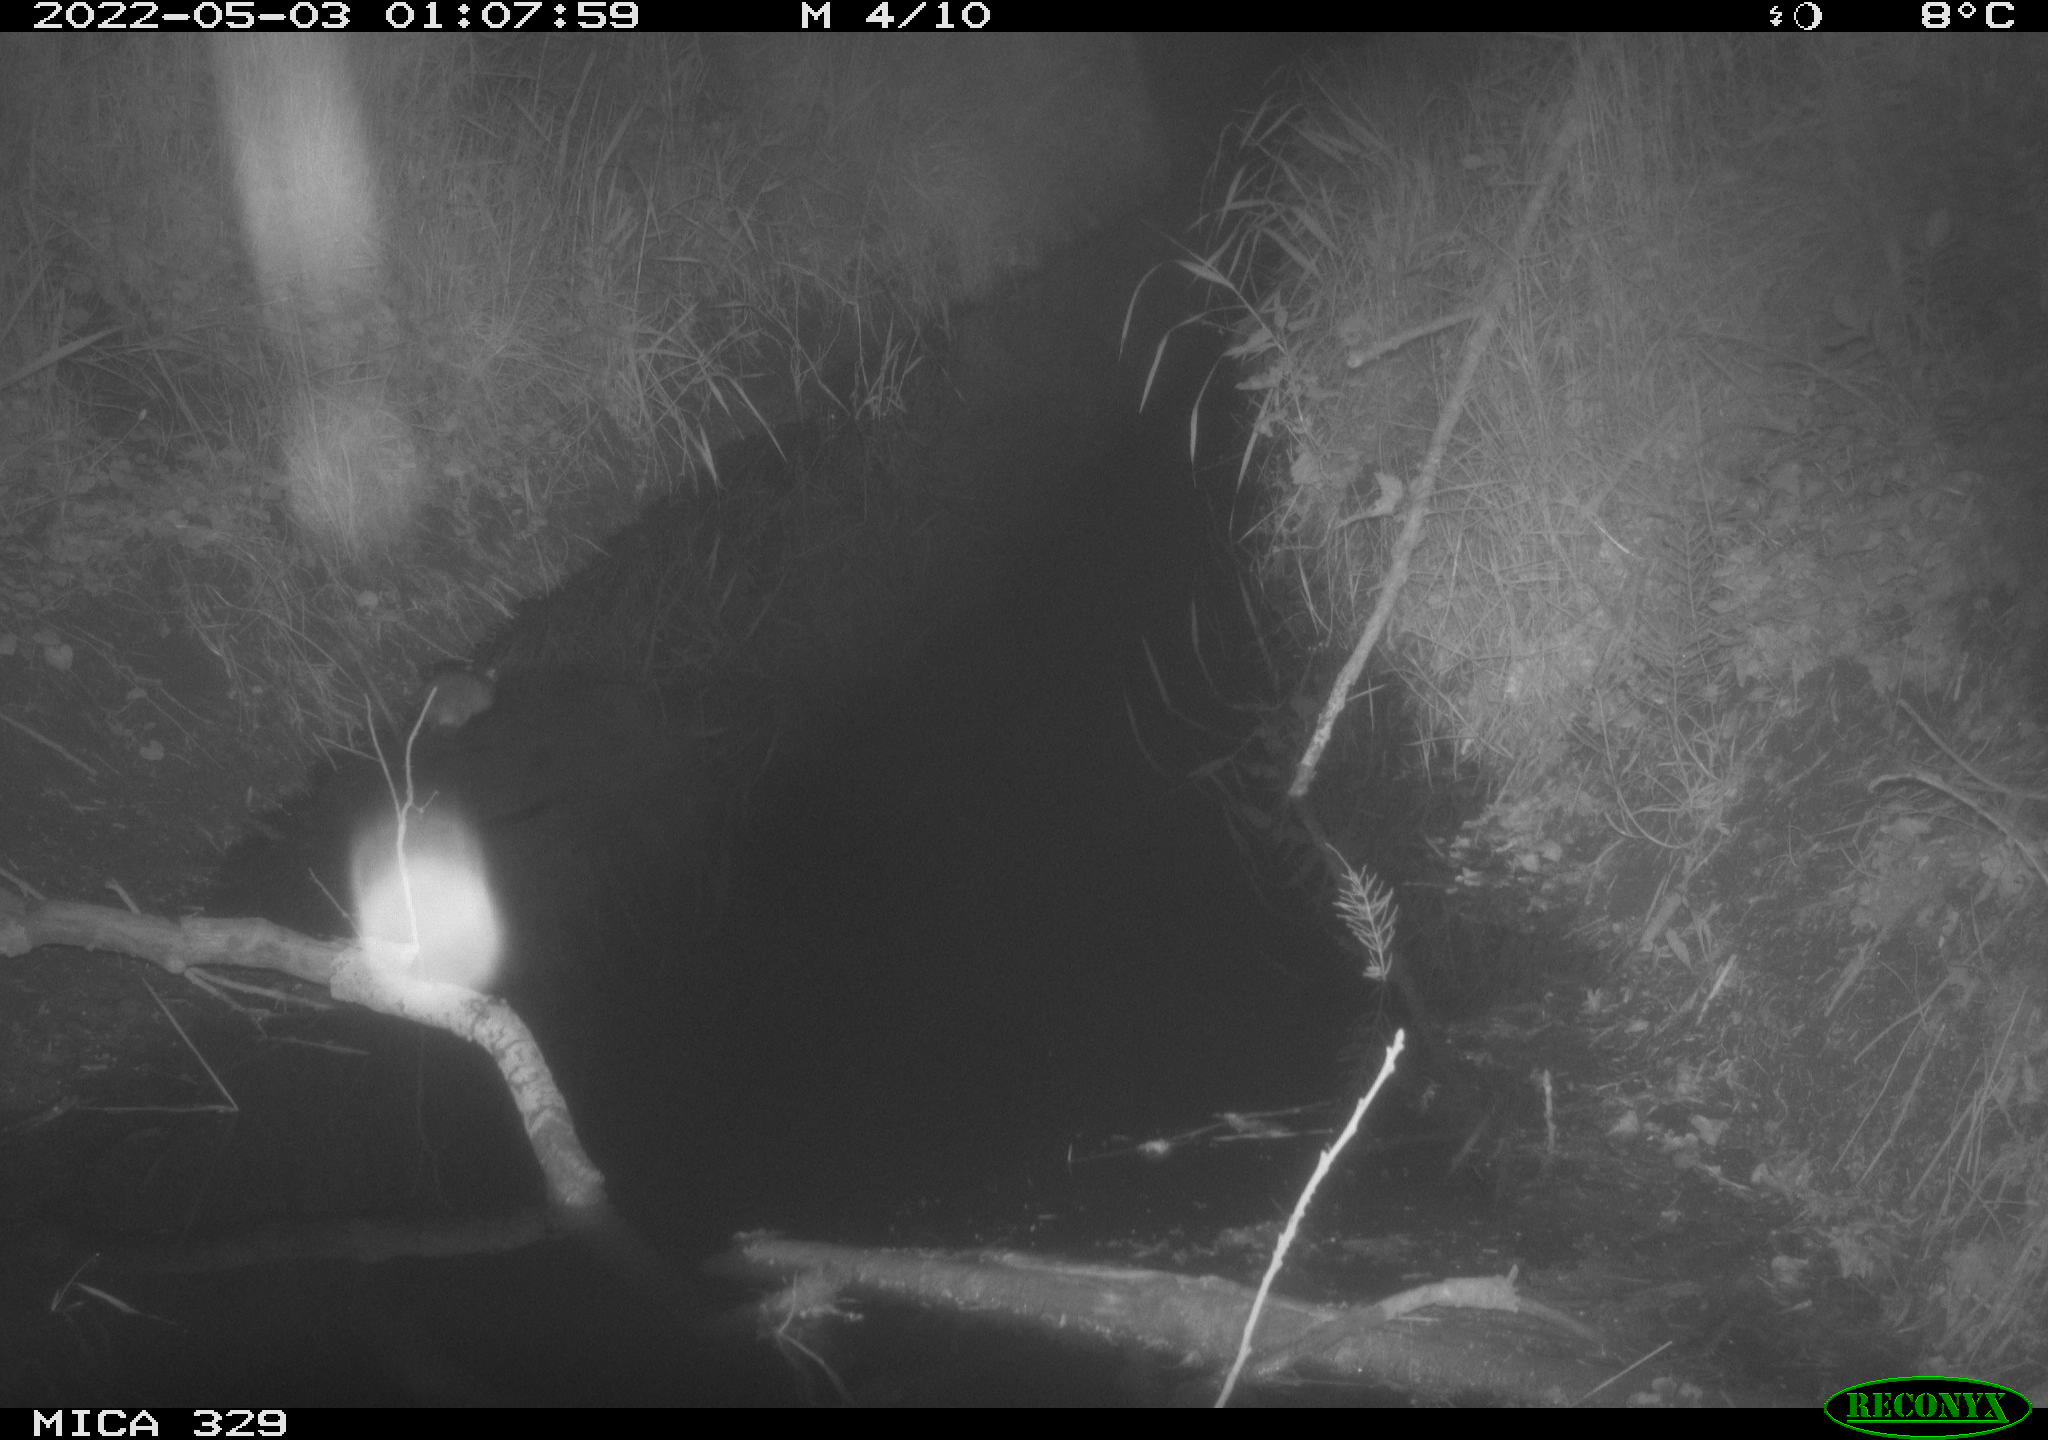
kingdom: Animalia
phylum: Chordata
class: Mammalia
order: Rodentia
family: Muridae
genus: Rattus
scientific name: Rattus norvegicus
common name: Brown rat
